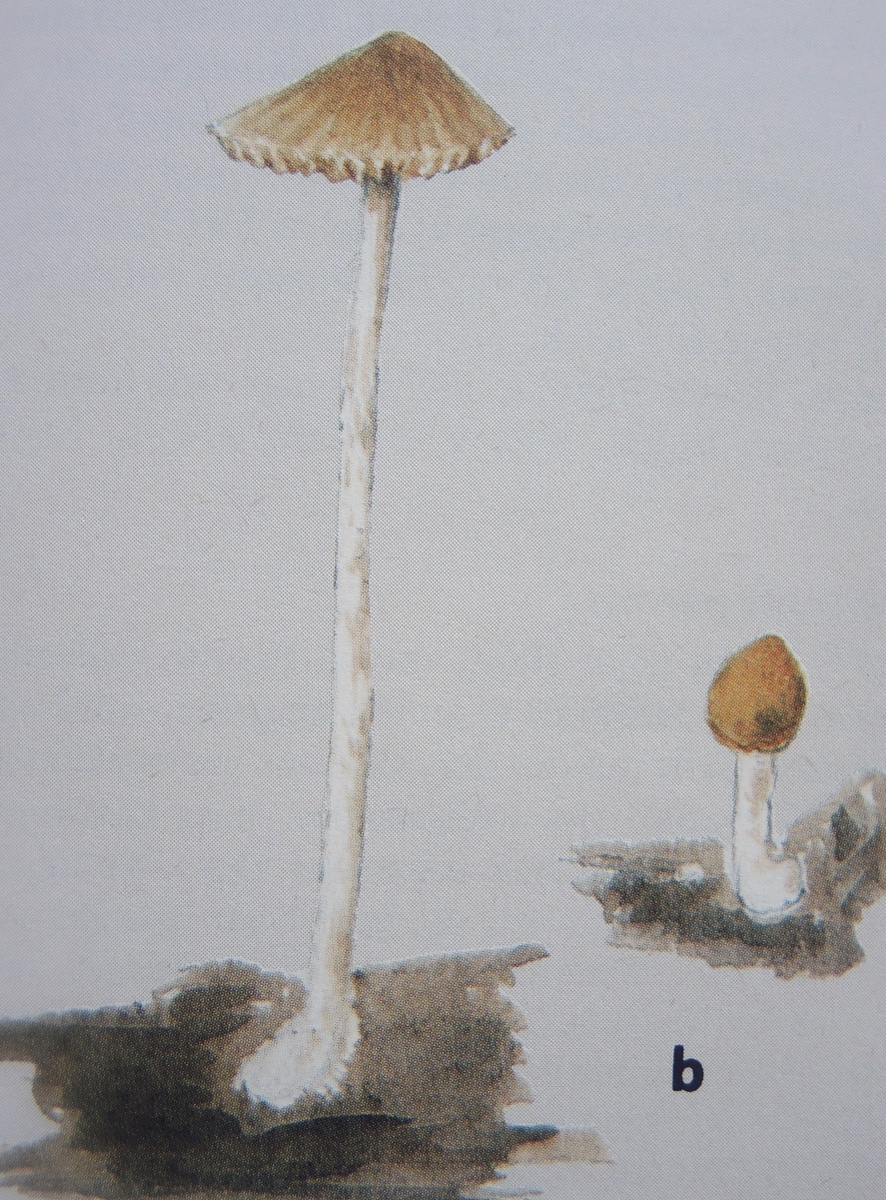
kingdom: Fungi
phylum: Basidiomycota
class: Agaricomycetes
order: Agaricales
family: Bolbitiaceae
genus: Pholiotina
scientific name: Pholiotina dasypus
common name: sump-dansehat
